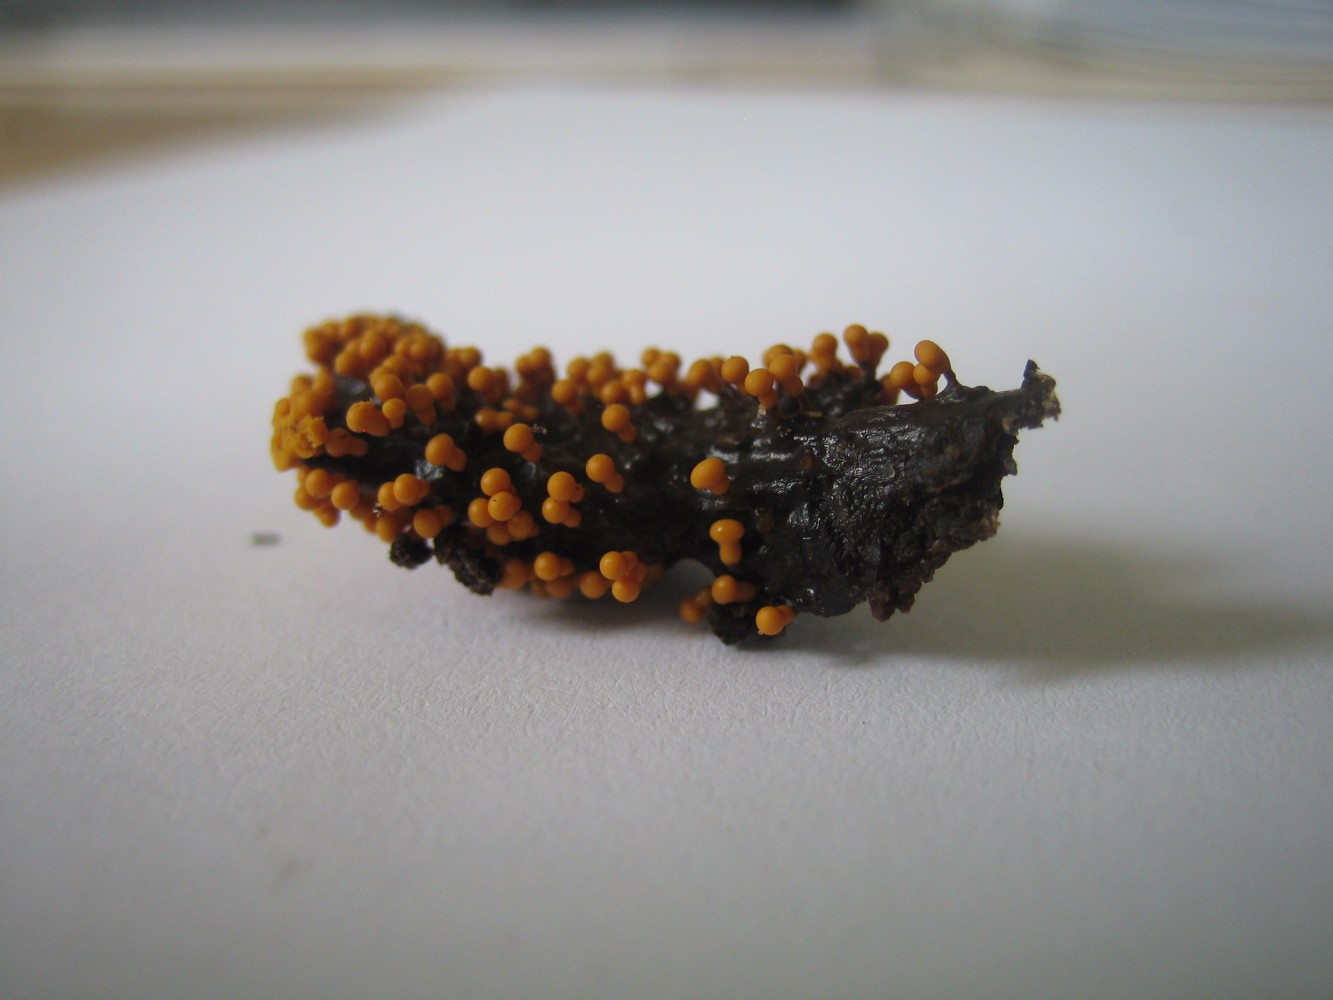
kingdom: Protozoa
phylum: Mycetozoa
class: Myxomycetes
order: Trichiales
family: Trichiaceae
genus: Trichia
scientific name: Trichia
